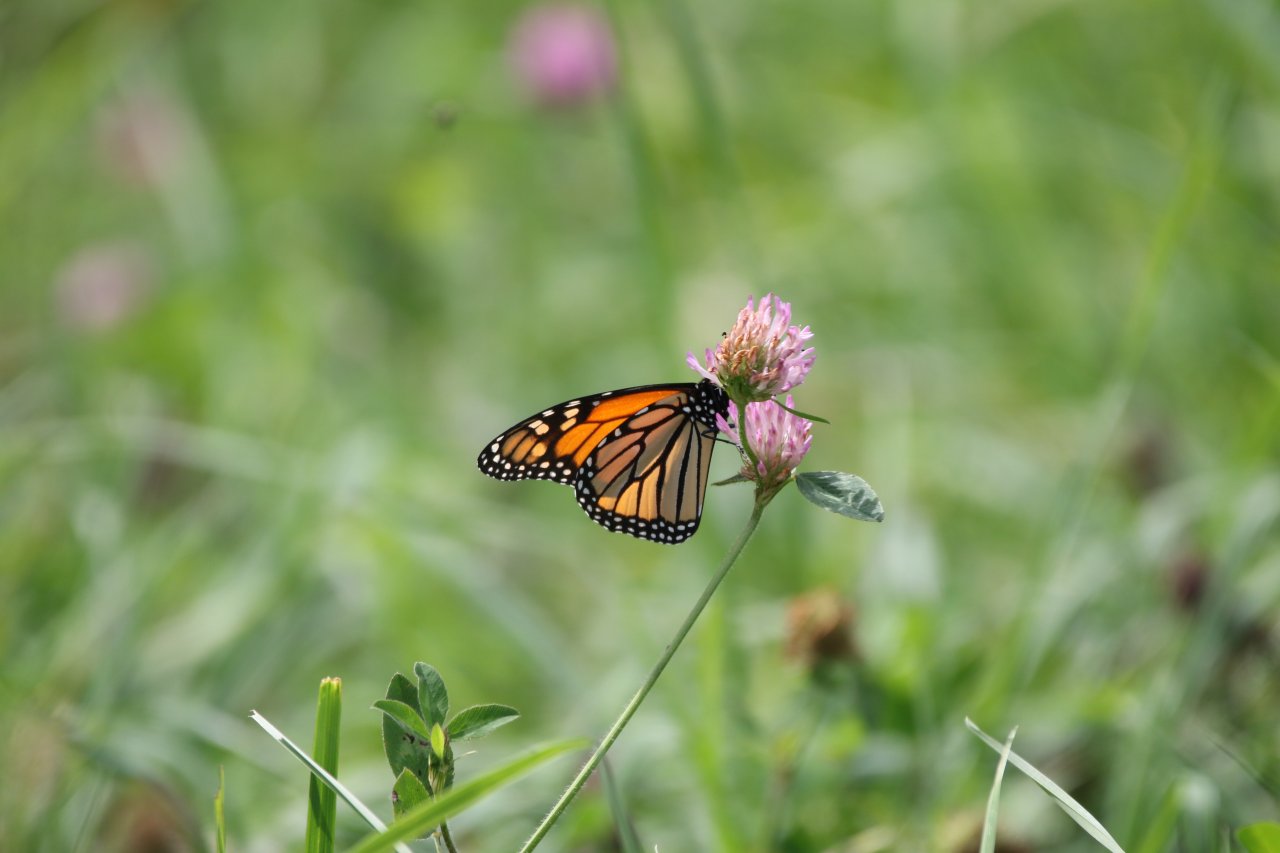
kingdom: Animalia
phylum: Arthropoda
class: Insecta
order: Lepidoptera
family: Nymphalidae
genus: Danaus
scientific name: Danaus plexippus
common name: Monarch
